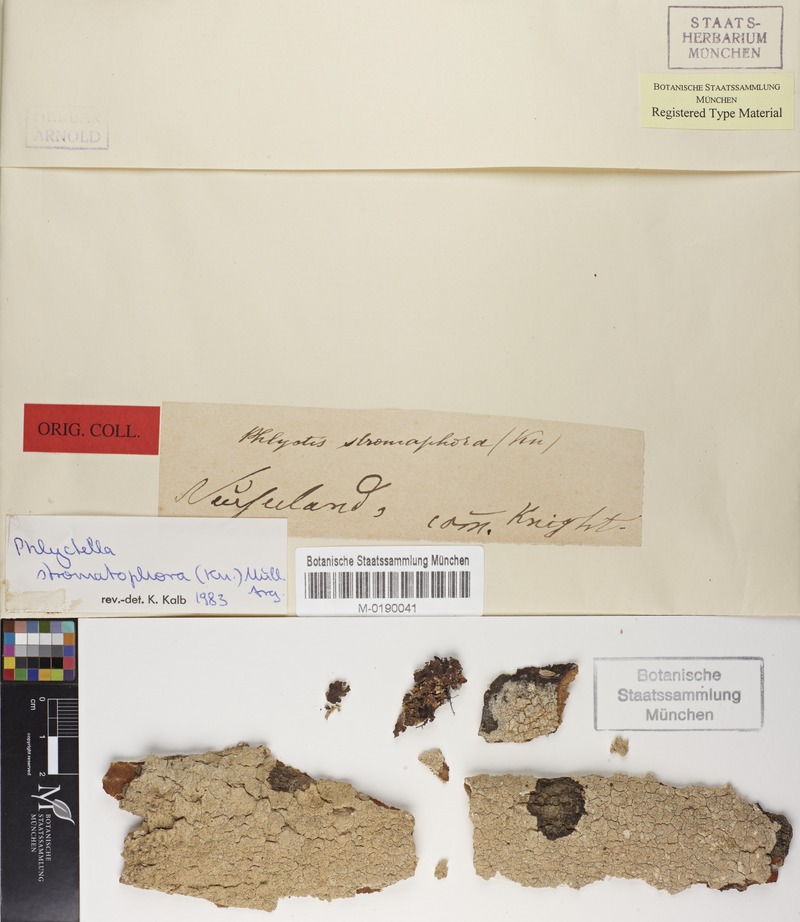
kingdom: Fungi
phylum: Ascomycota
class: Lecanoromycetes
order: Ostropales
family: Phlyctidaceae
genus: Phlyctis
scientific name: Phlyctis oleosa
